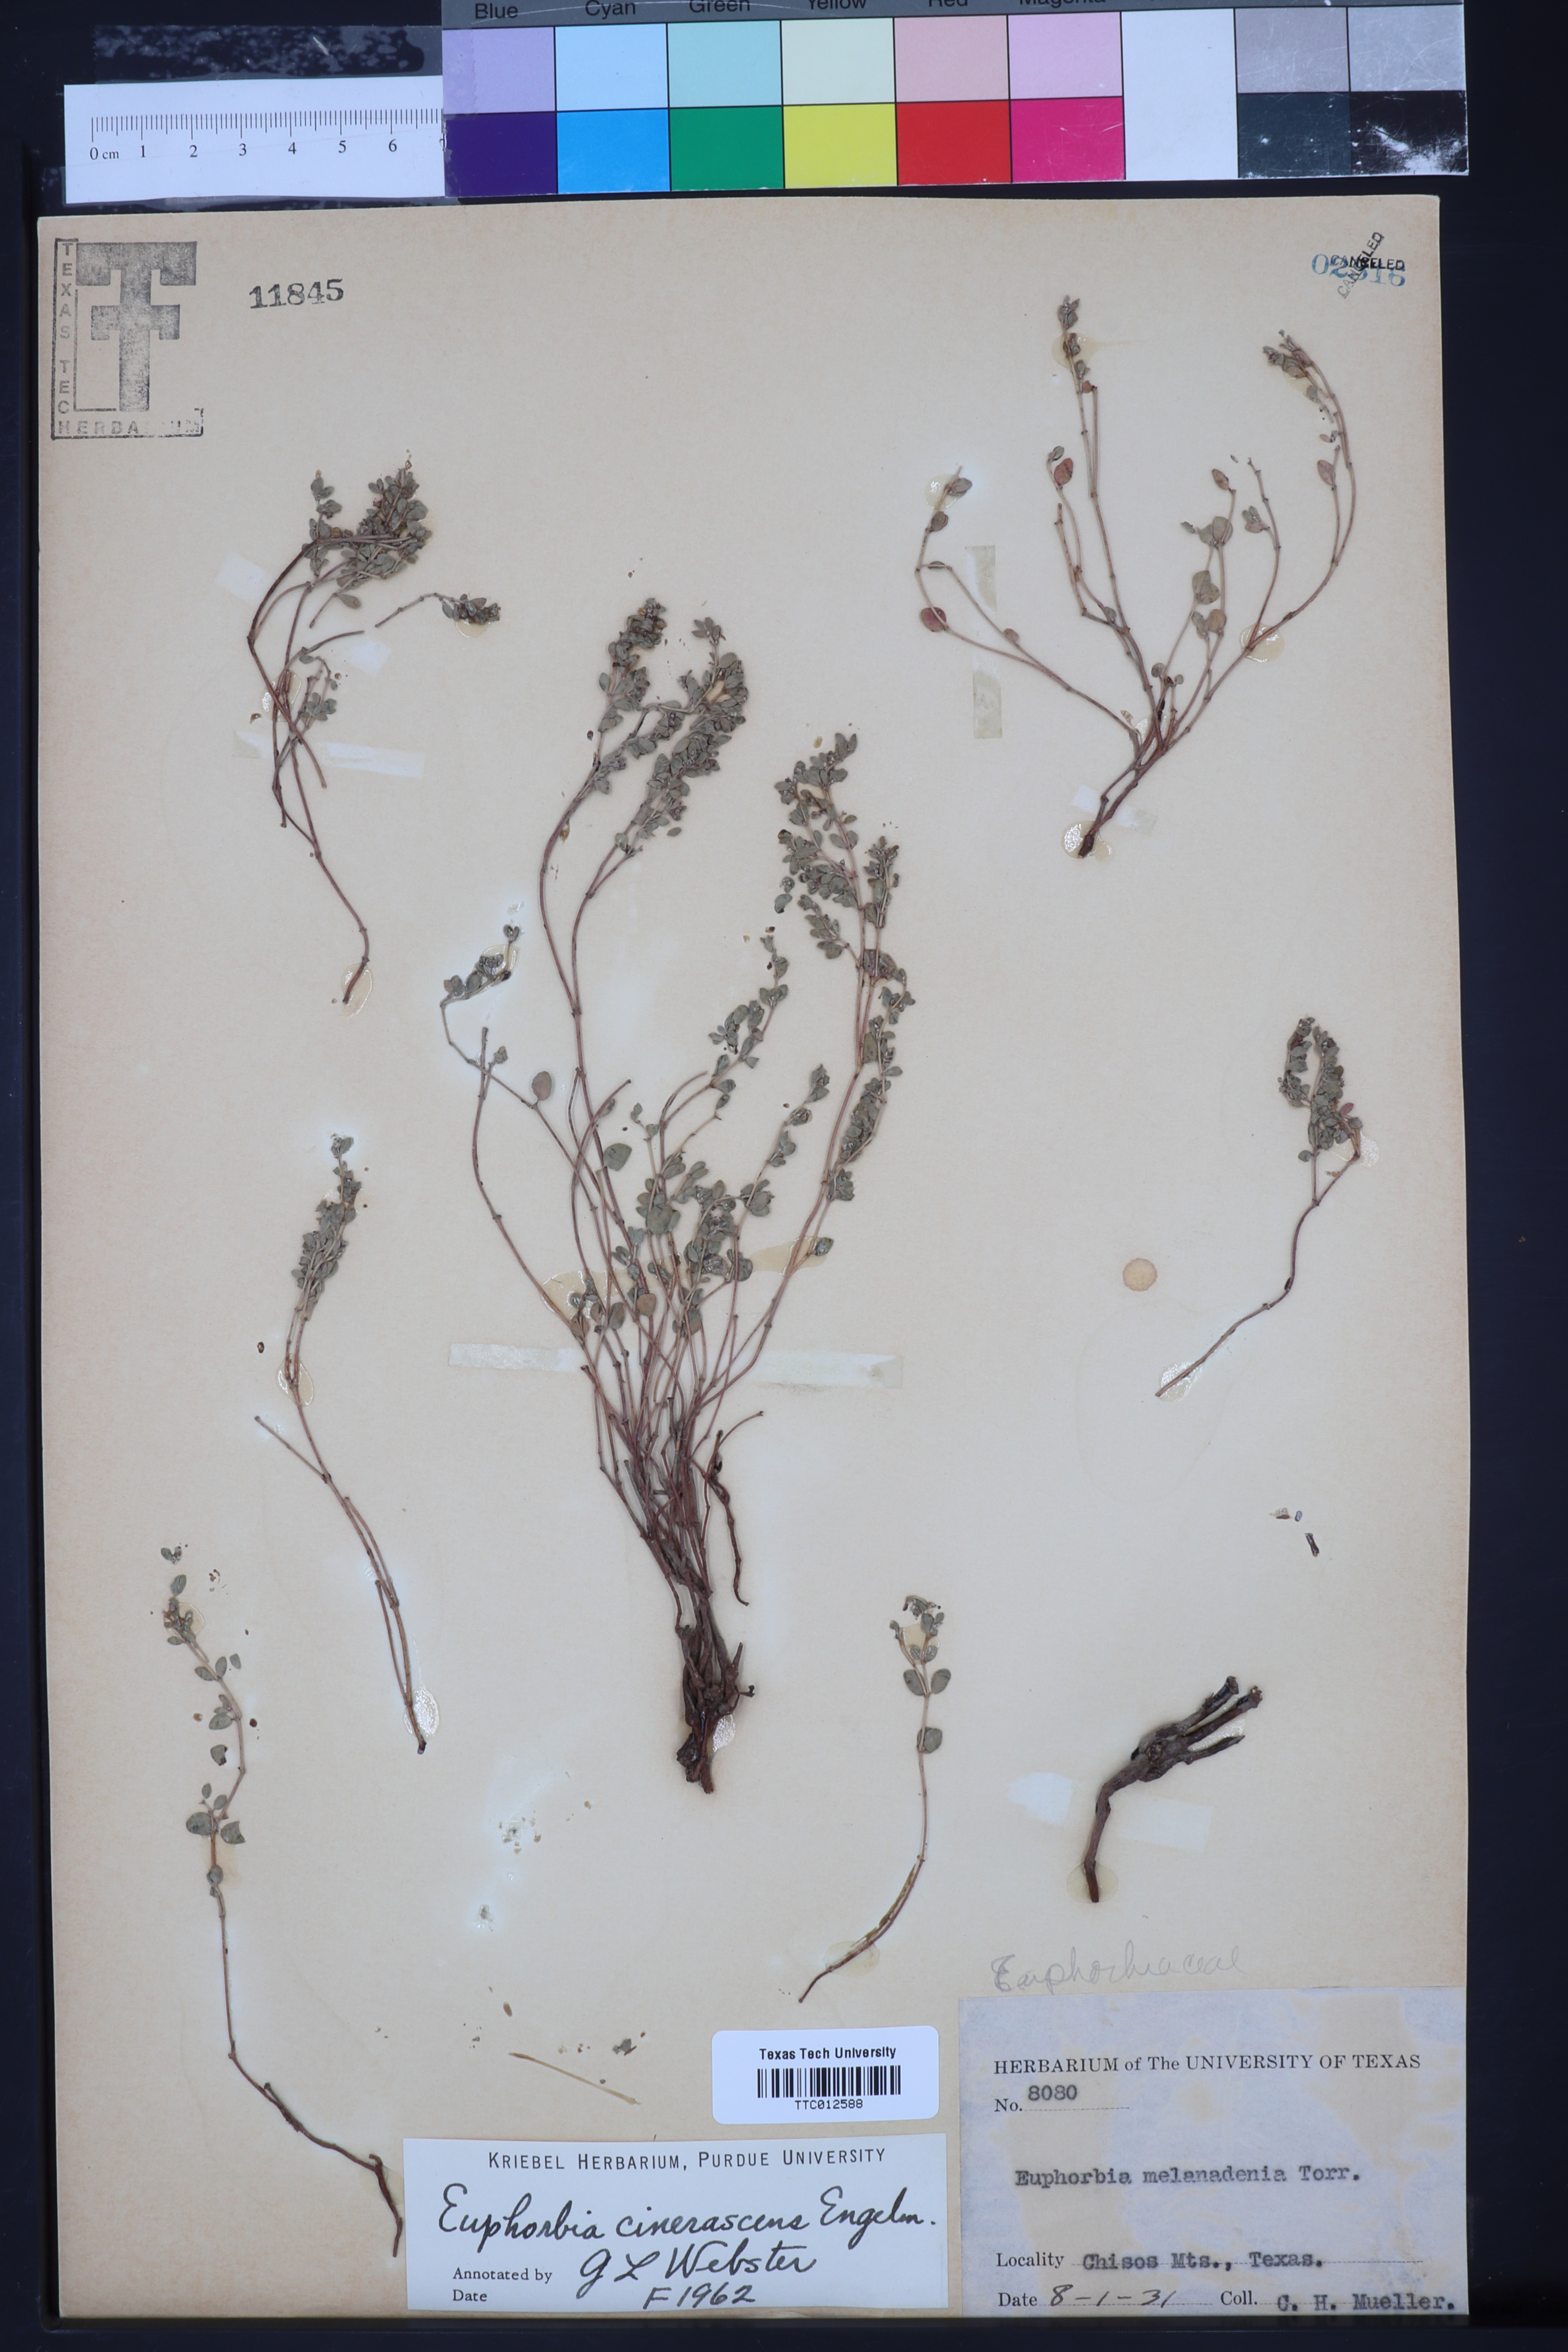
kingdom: Plantae
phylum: Tracheophyta
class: Magnoliopsida
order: Malpighiales
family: Euphorbiaceae
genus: Euphorbia
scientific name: Euphorbia cinerascens
